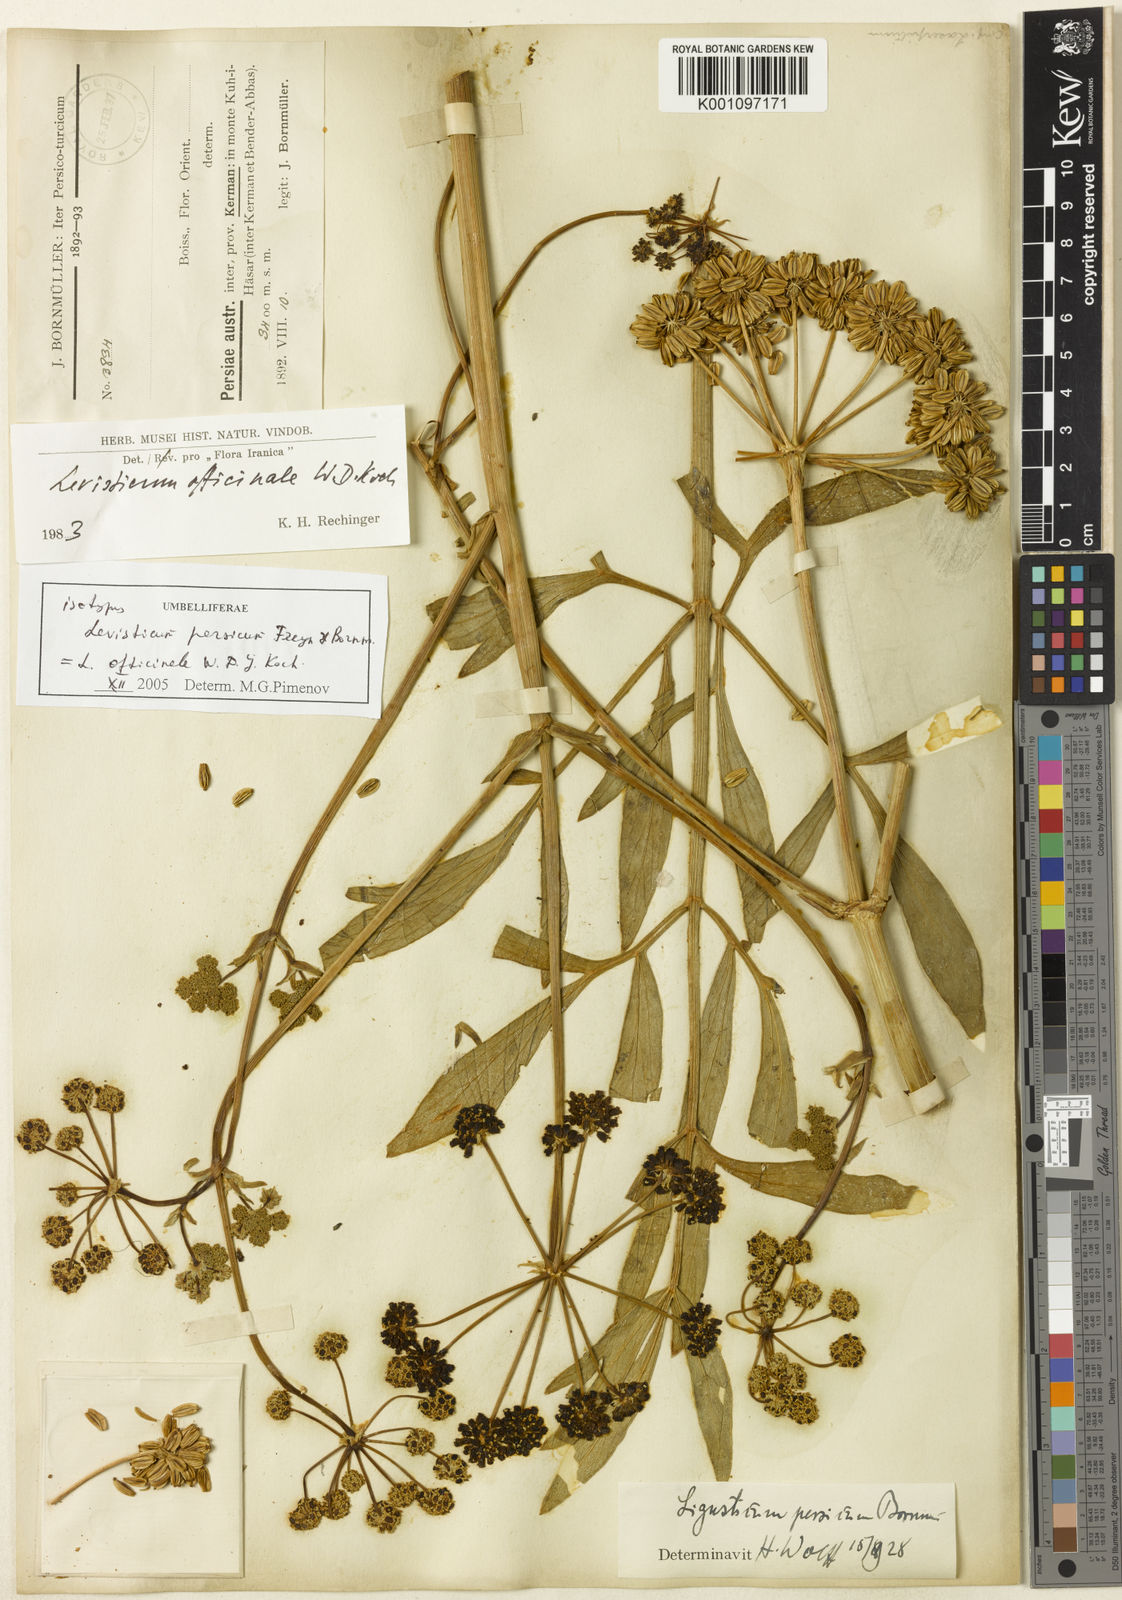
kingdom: Plantae
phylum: Tracheophyta
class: Magnoliopsida
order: Apiales
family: Apiaceae
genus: Levisticum
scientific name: Levisticum officinale
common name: Lovage
